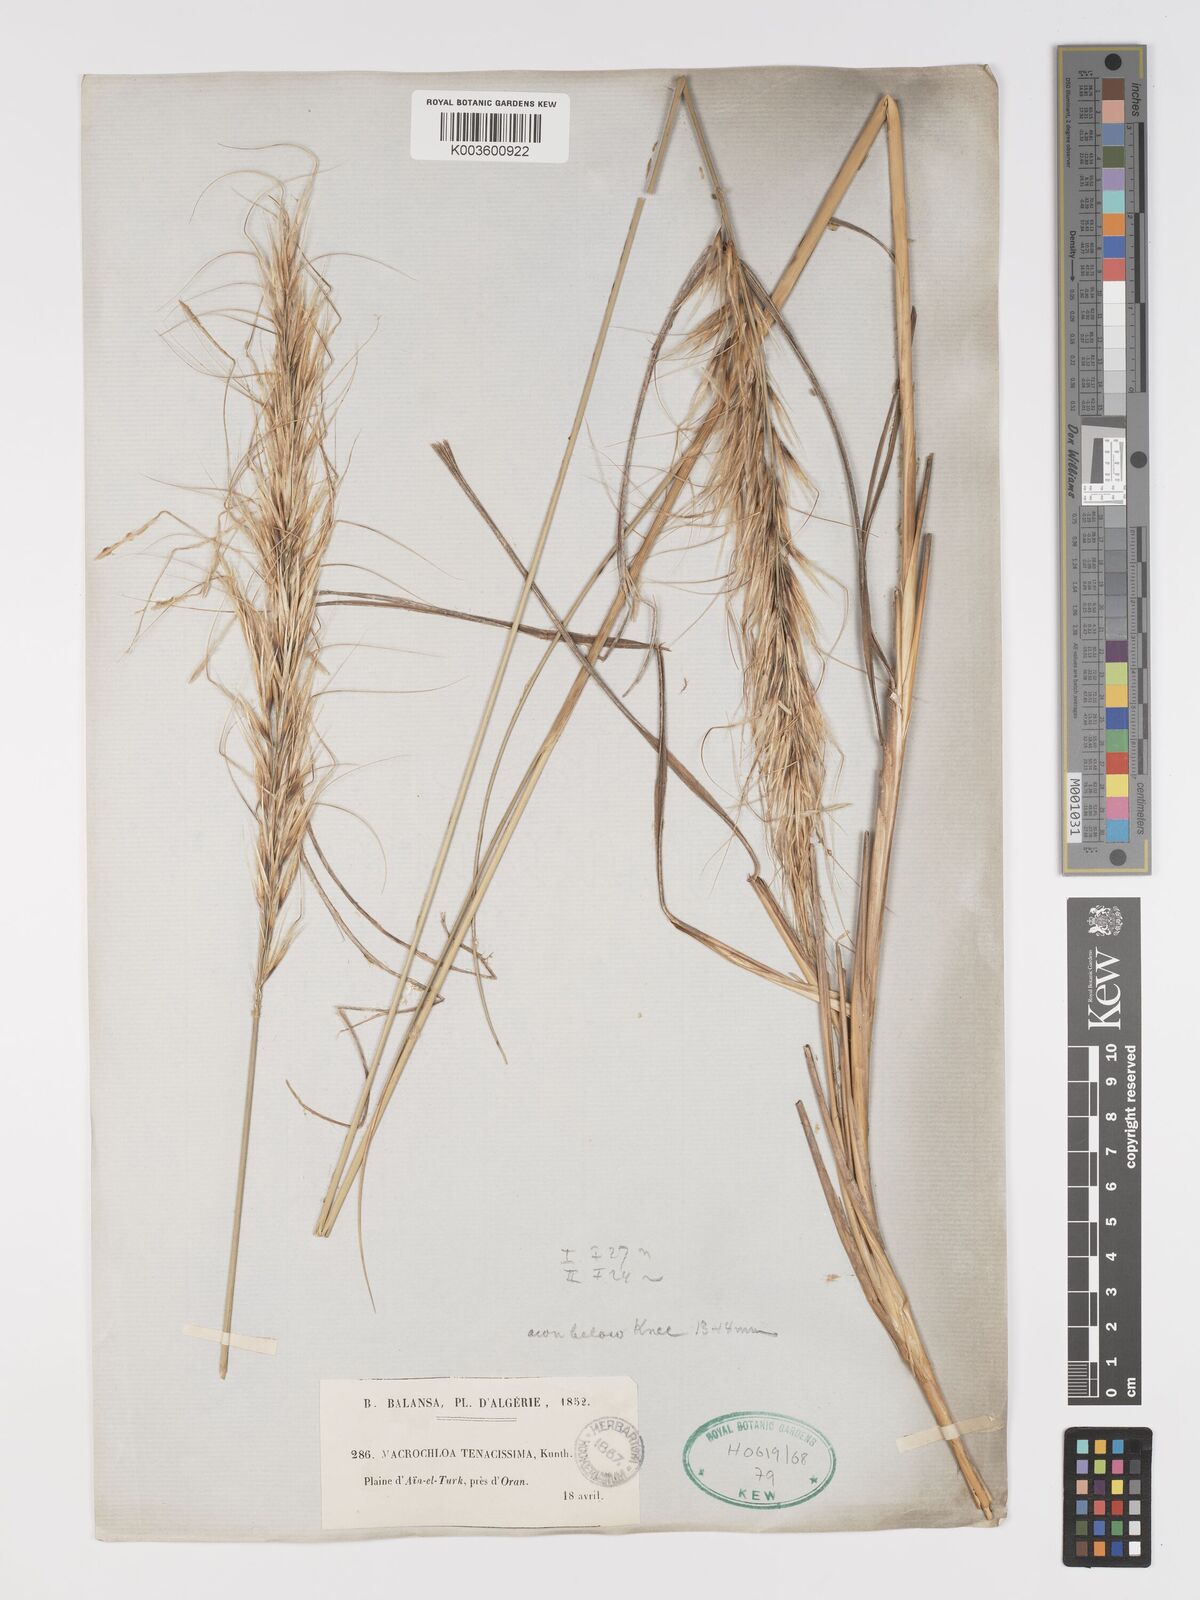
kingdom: Plantae
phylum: Tracheophyta
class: Liliopsida
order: Poales
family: Poaceae
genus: Macrochloa
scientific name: Macrochloa tenacissima
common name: Alfa grass
